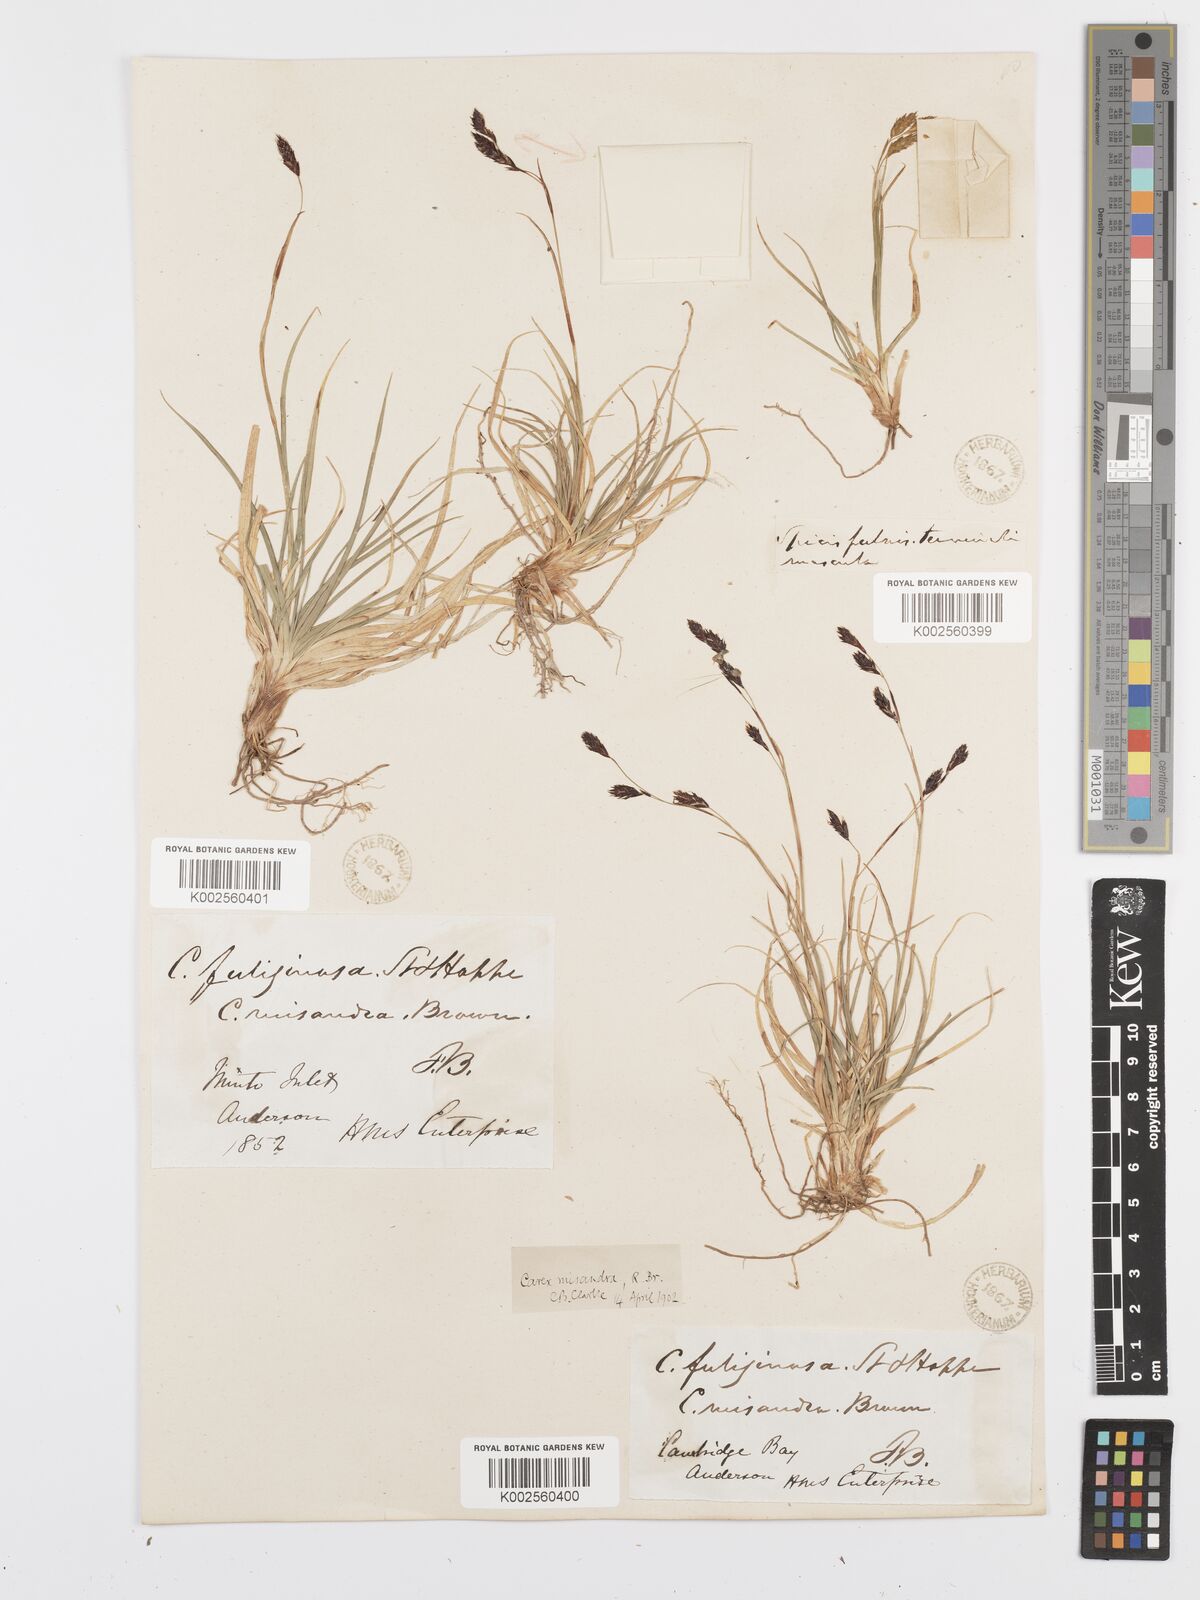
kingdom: Plantae
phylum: Tracheophyta
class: Liliopsida
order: Poales
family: Cyperaceae
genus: Carex
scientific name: Carex fuliginosa
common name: Few-flowered sedge
